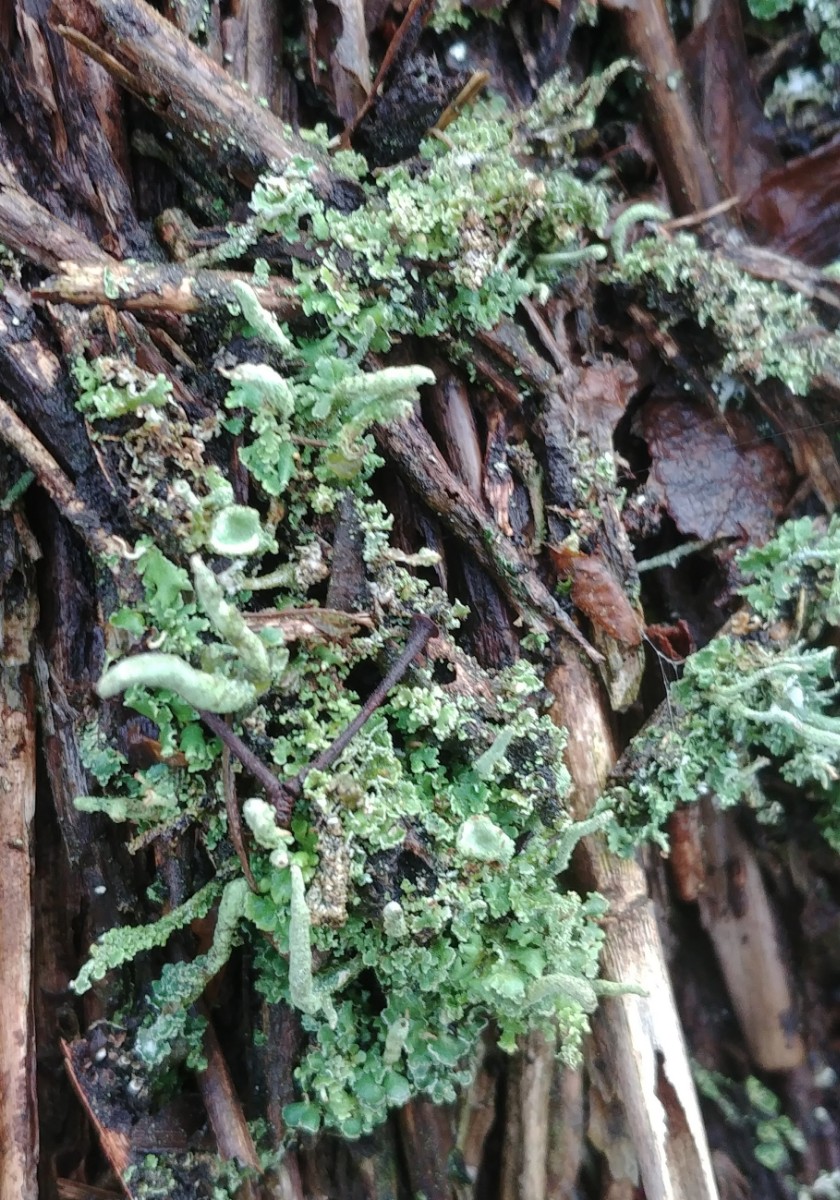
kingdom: Fungi
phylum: Ascomycota
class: Lecanoromycetes
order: Lecanorales
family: Cladoniaceae
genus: Cladonia
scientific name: Cladonia
